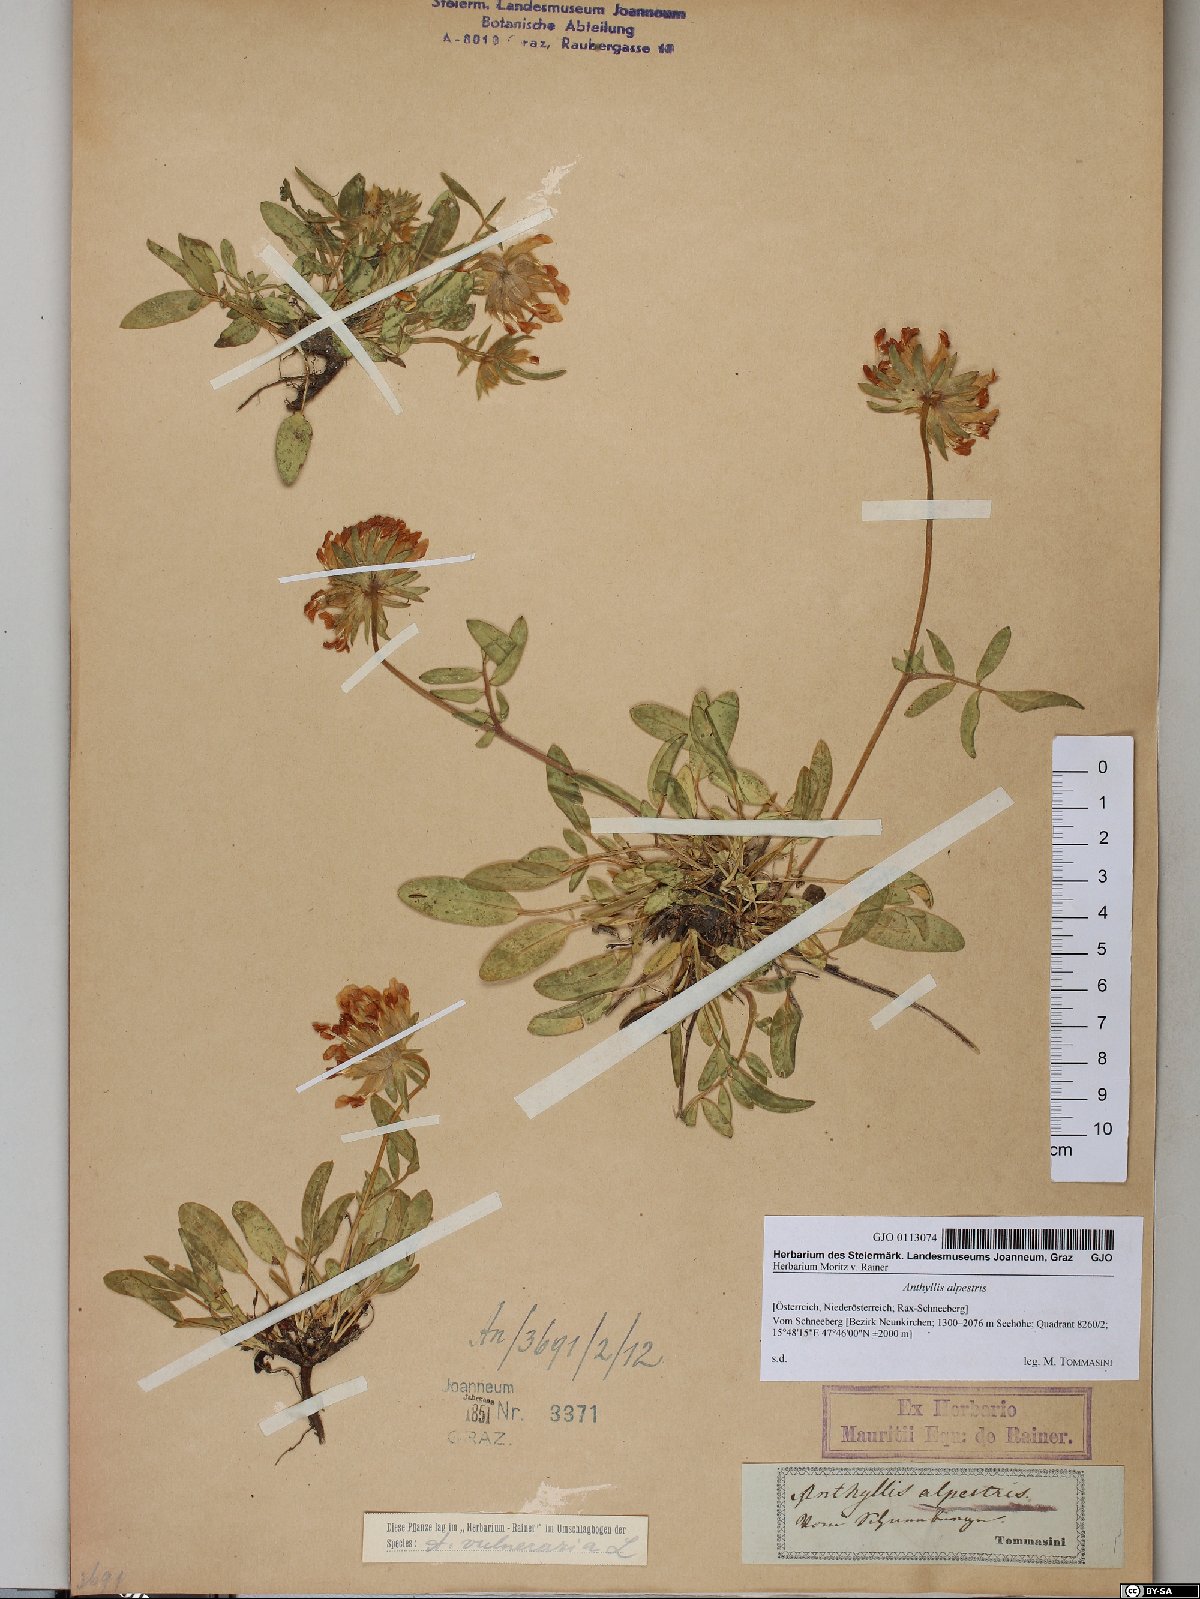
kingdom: Plantae
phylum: Tracheophyta
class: Magnoliopsida
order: Fabales
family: Fabaceae
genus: Anthyllis
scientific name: Anthyllis vulneraria
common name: Kidney vetch
